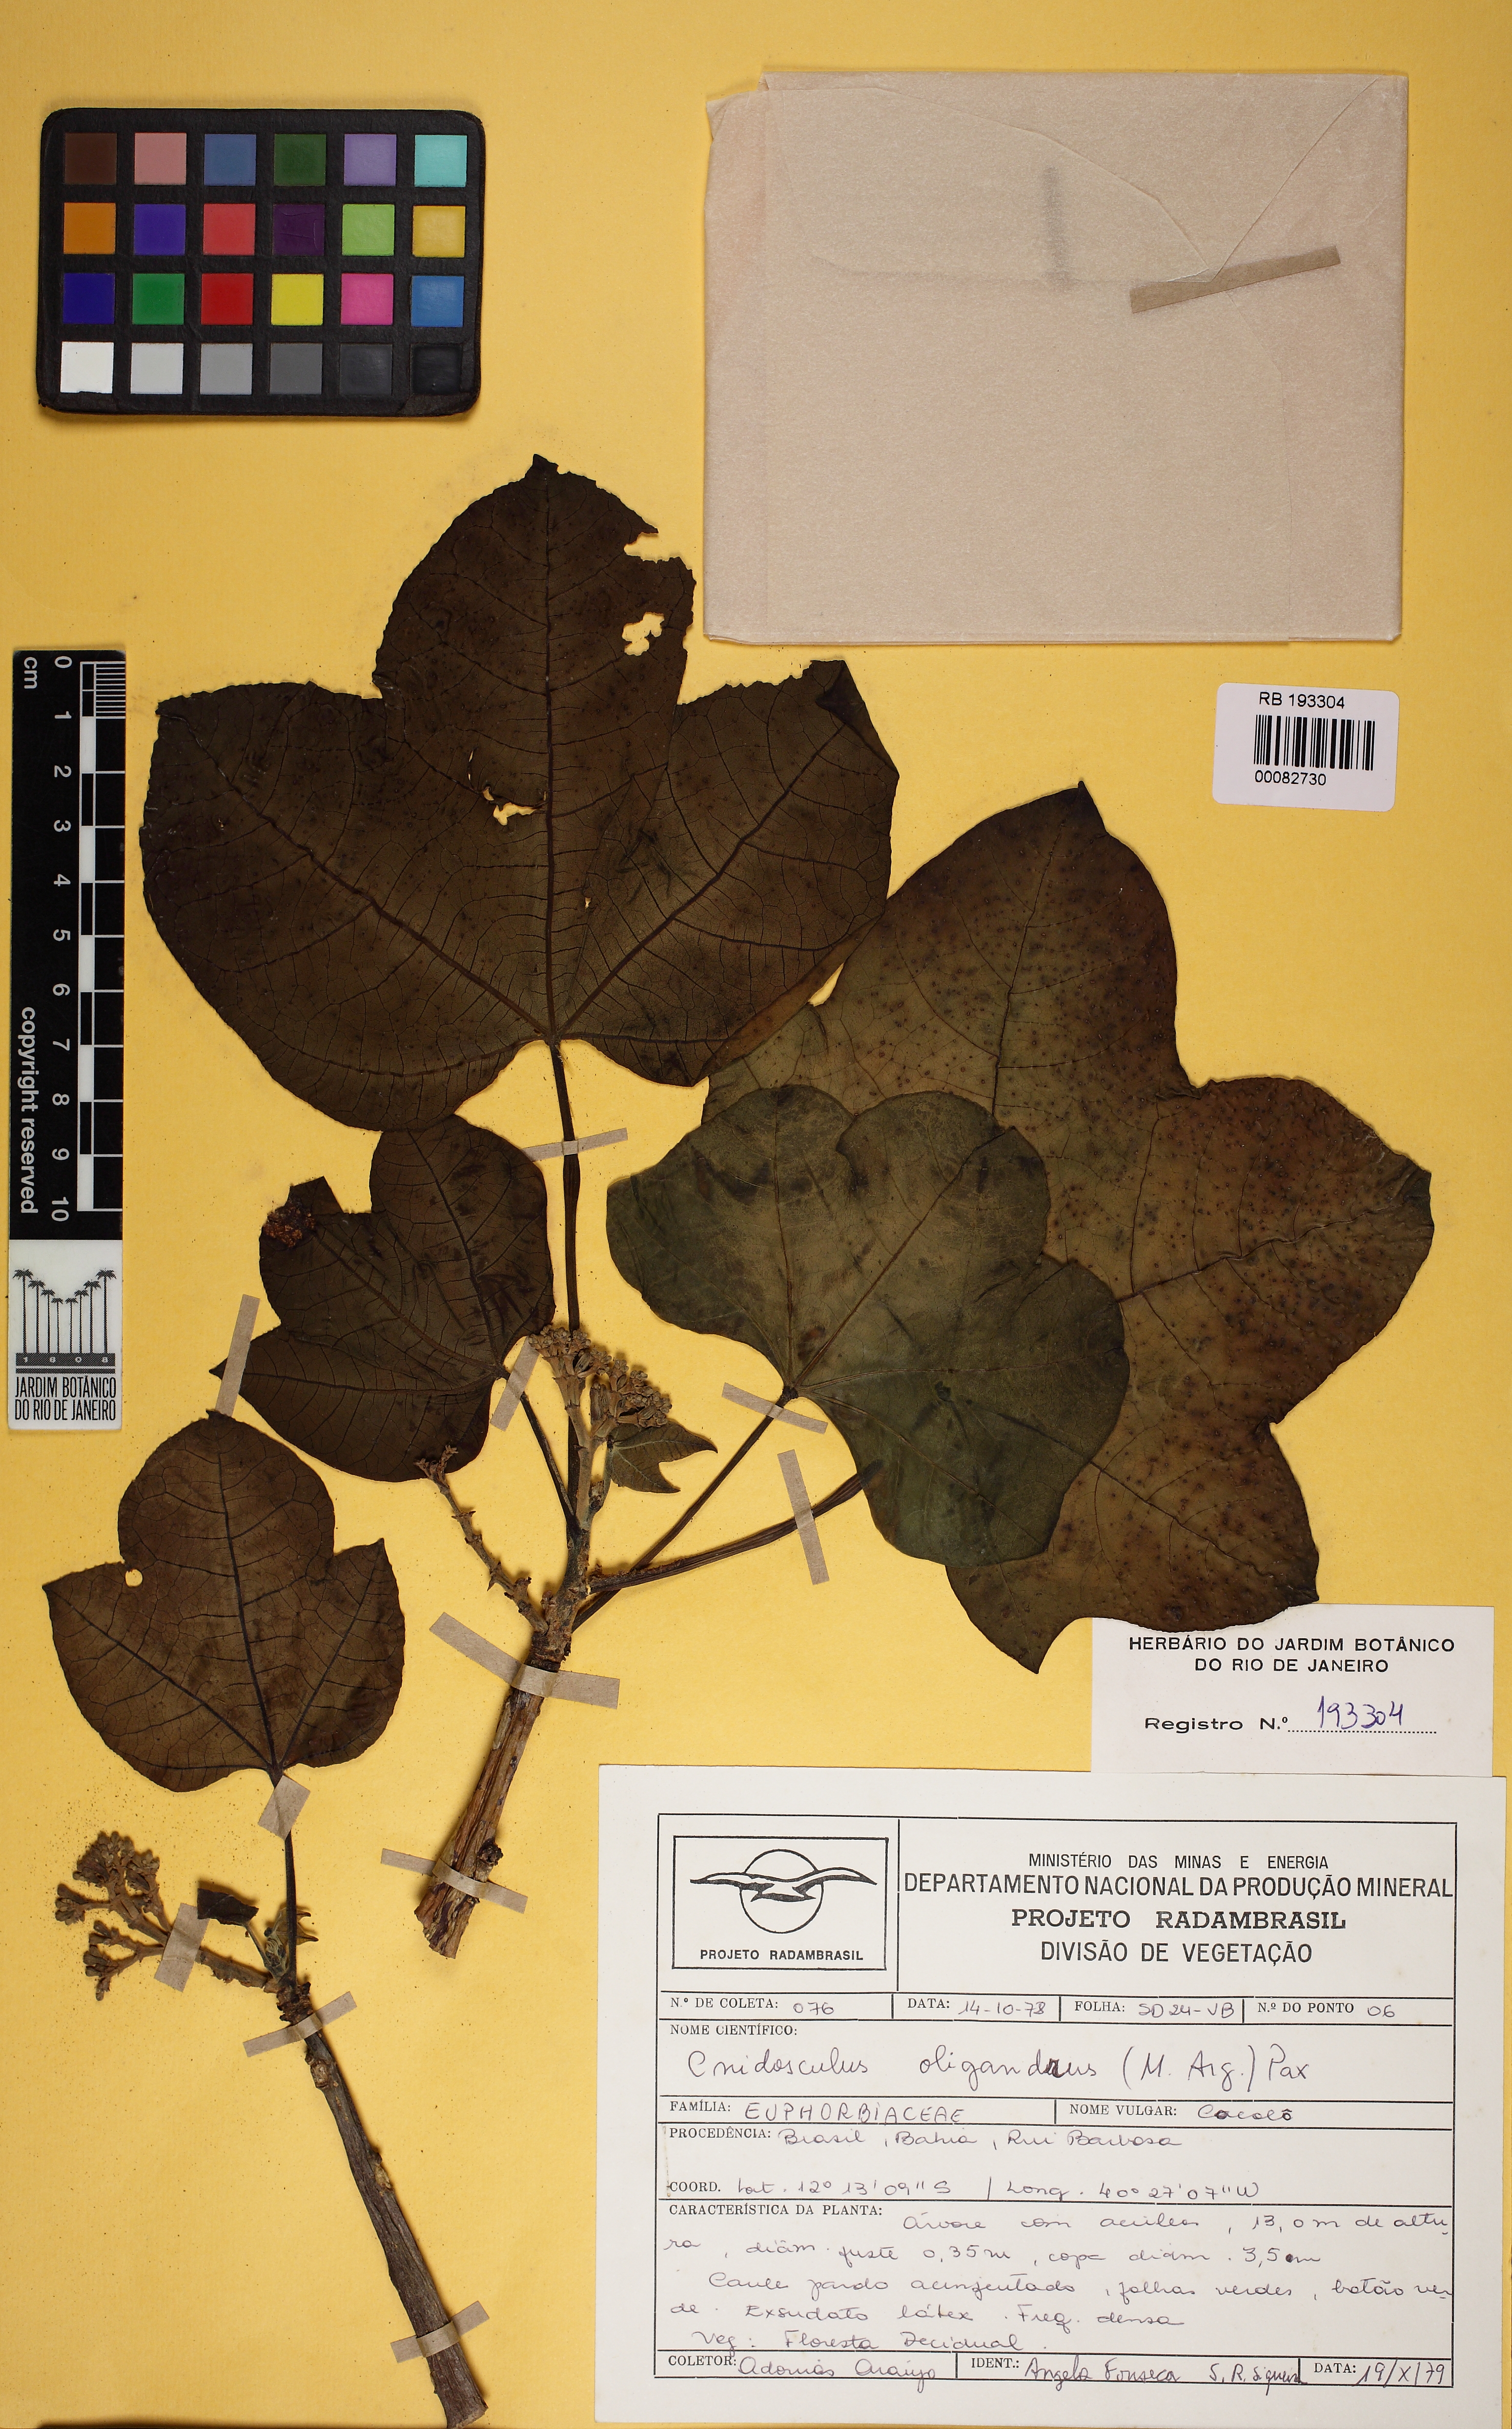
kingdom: Plantae
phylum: Tracheophyta
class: Magnoliopsida
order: Malpighiales
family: Euphorbiaceae
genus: Cnidoscolus
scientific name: Cnidoscolus oligandrus
